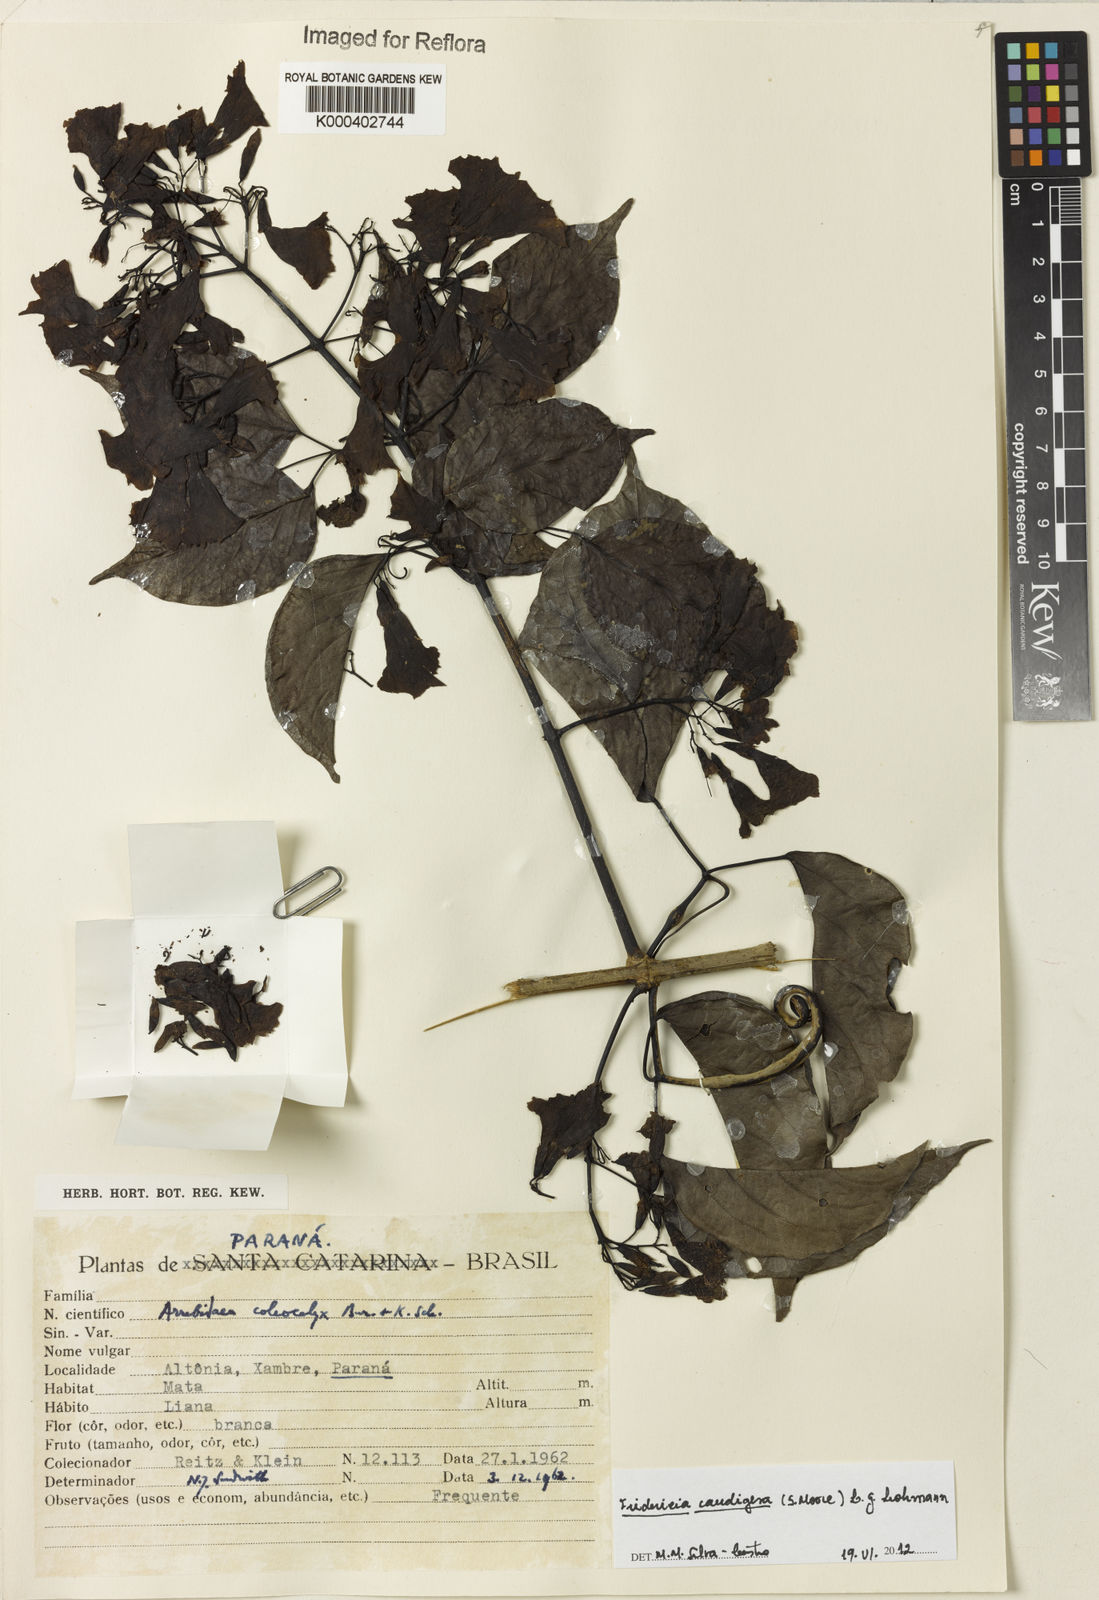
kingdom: Plantae
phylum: Tracheophyta
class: Magnoliopsida
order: Lamiales
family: Bignoniaceae
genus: Fridericia
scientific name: Fridericia caudigera
